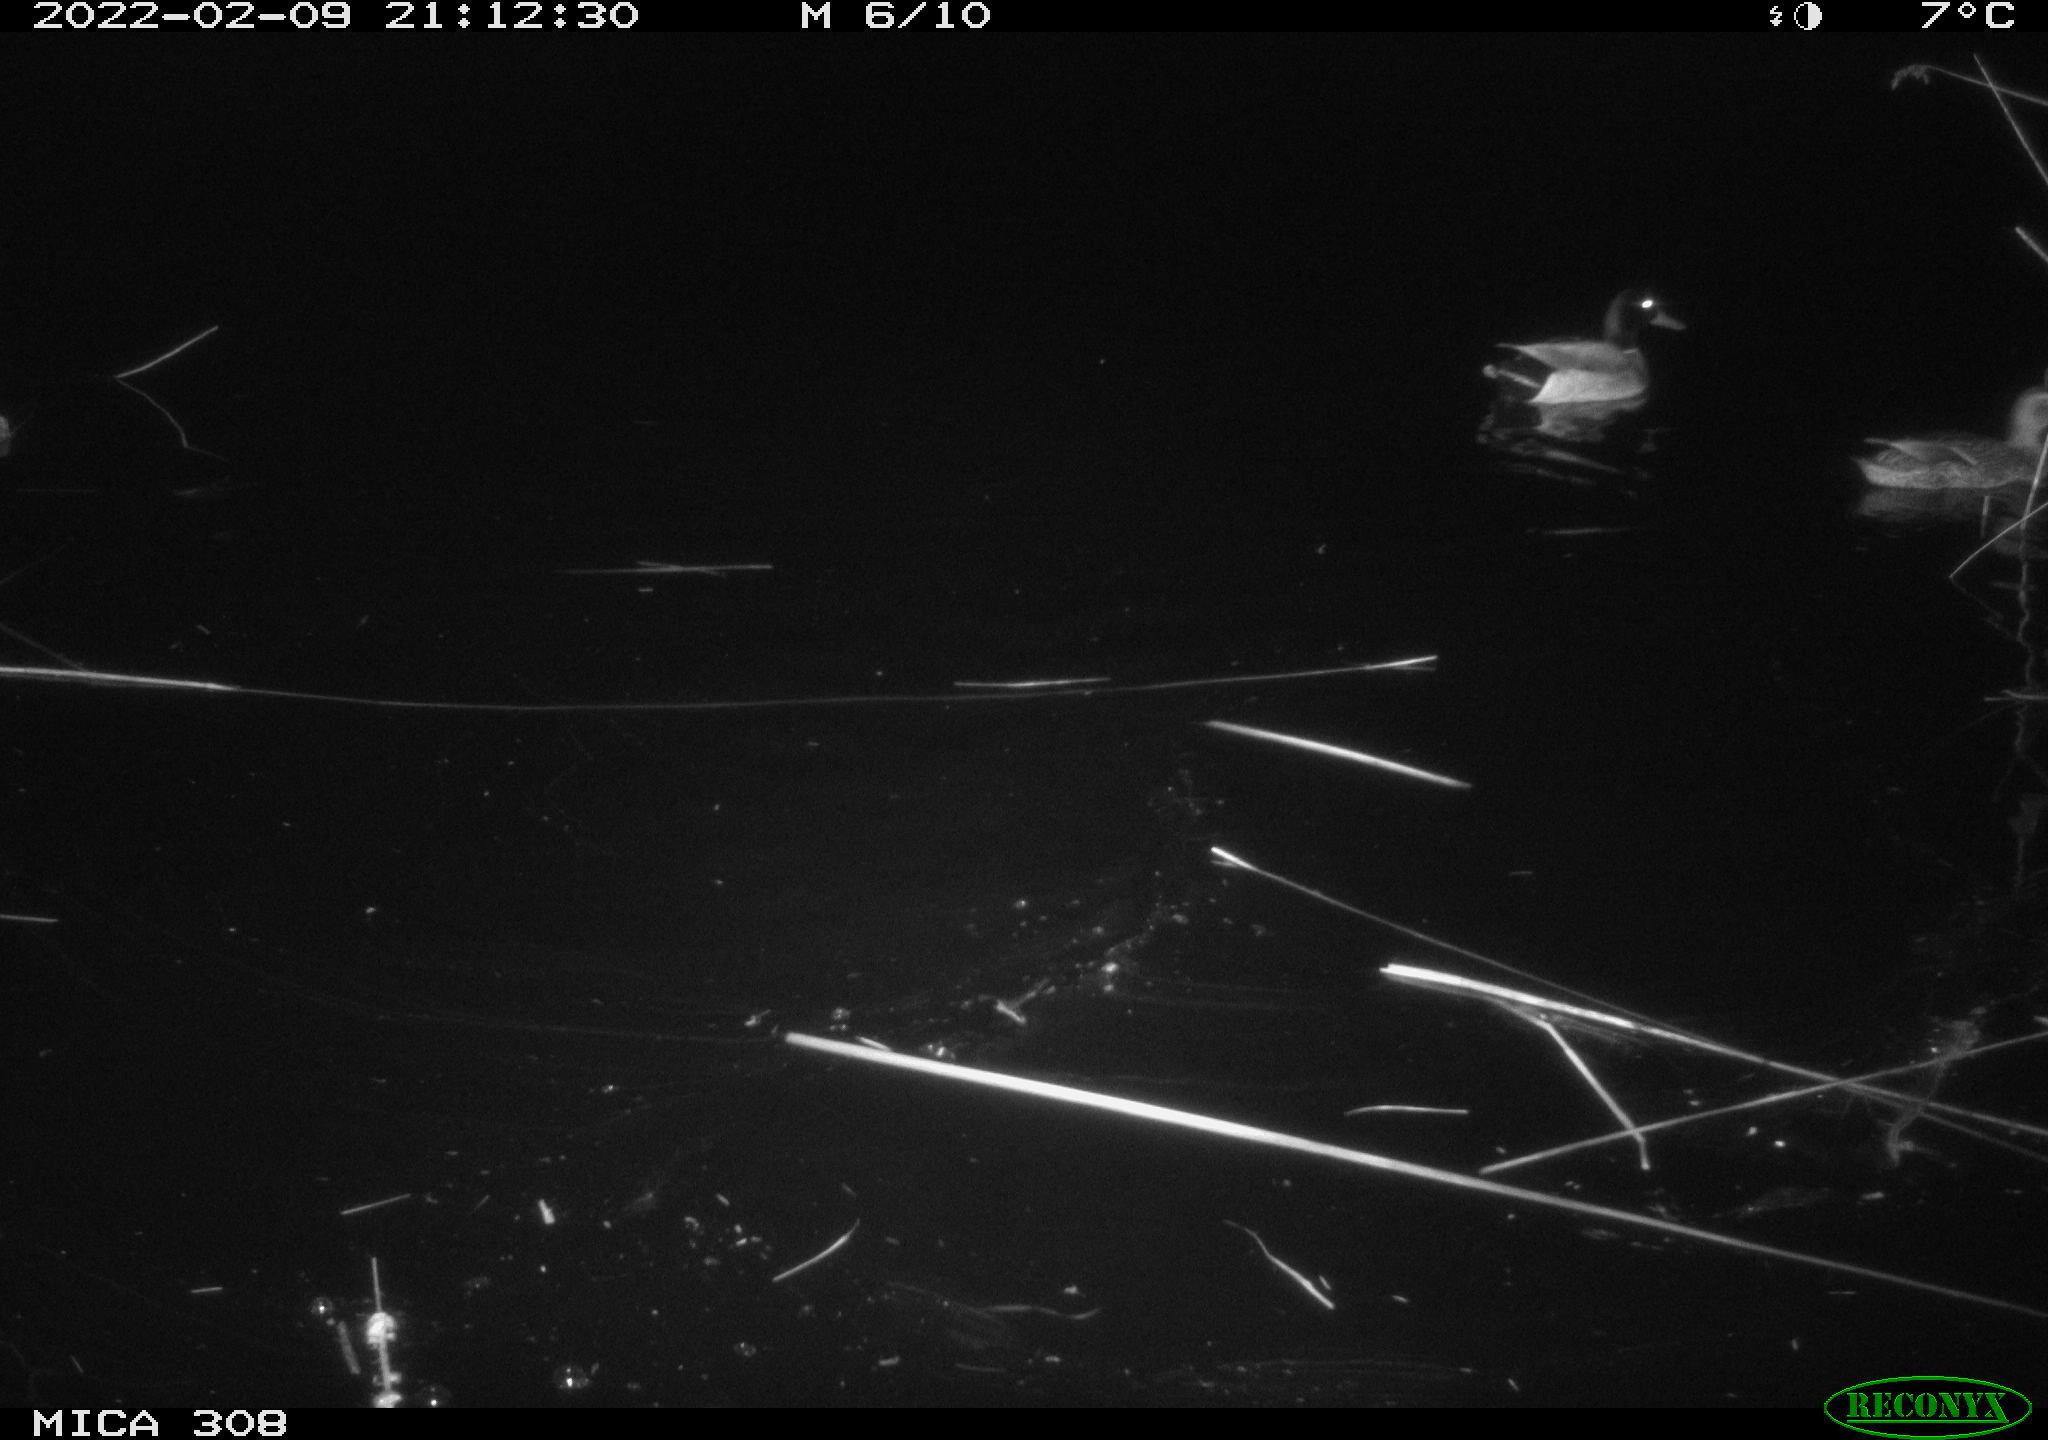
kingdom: Animalia
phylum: Chordata
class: Aves
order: Anseriformes
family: Anatidae
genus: Anas
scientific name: Anas platyrhynchos
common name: Mallard
